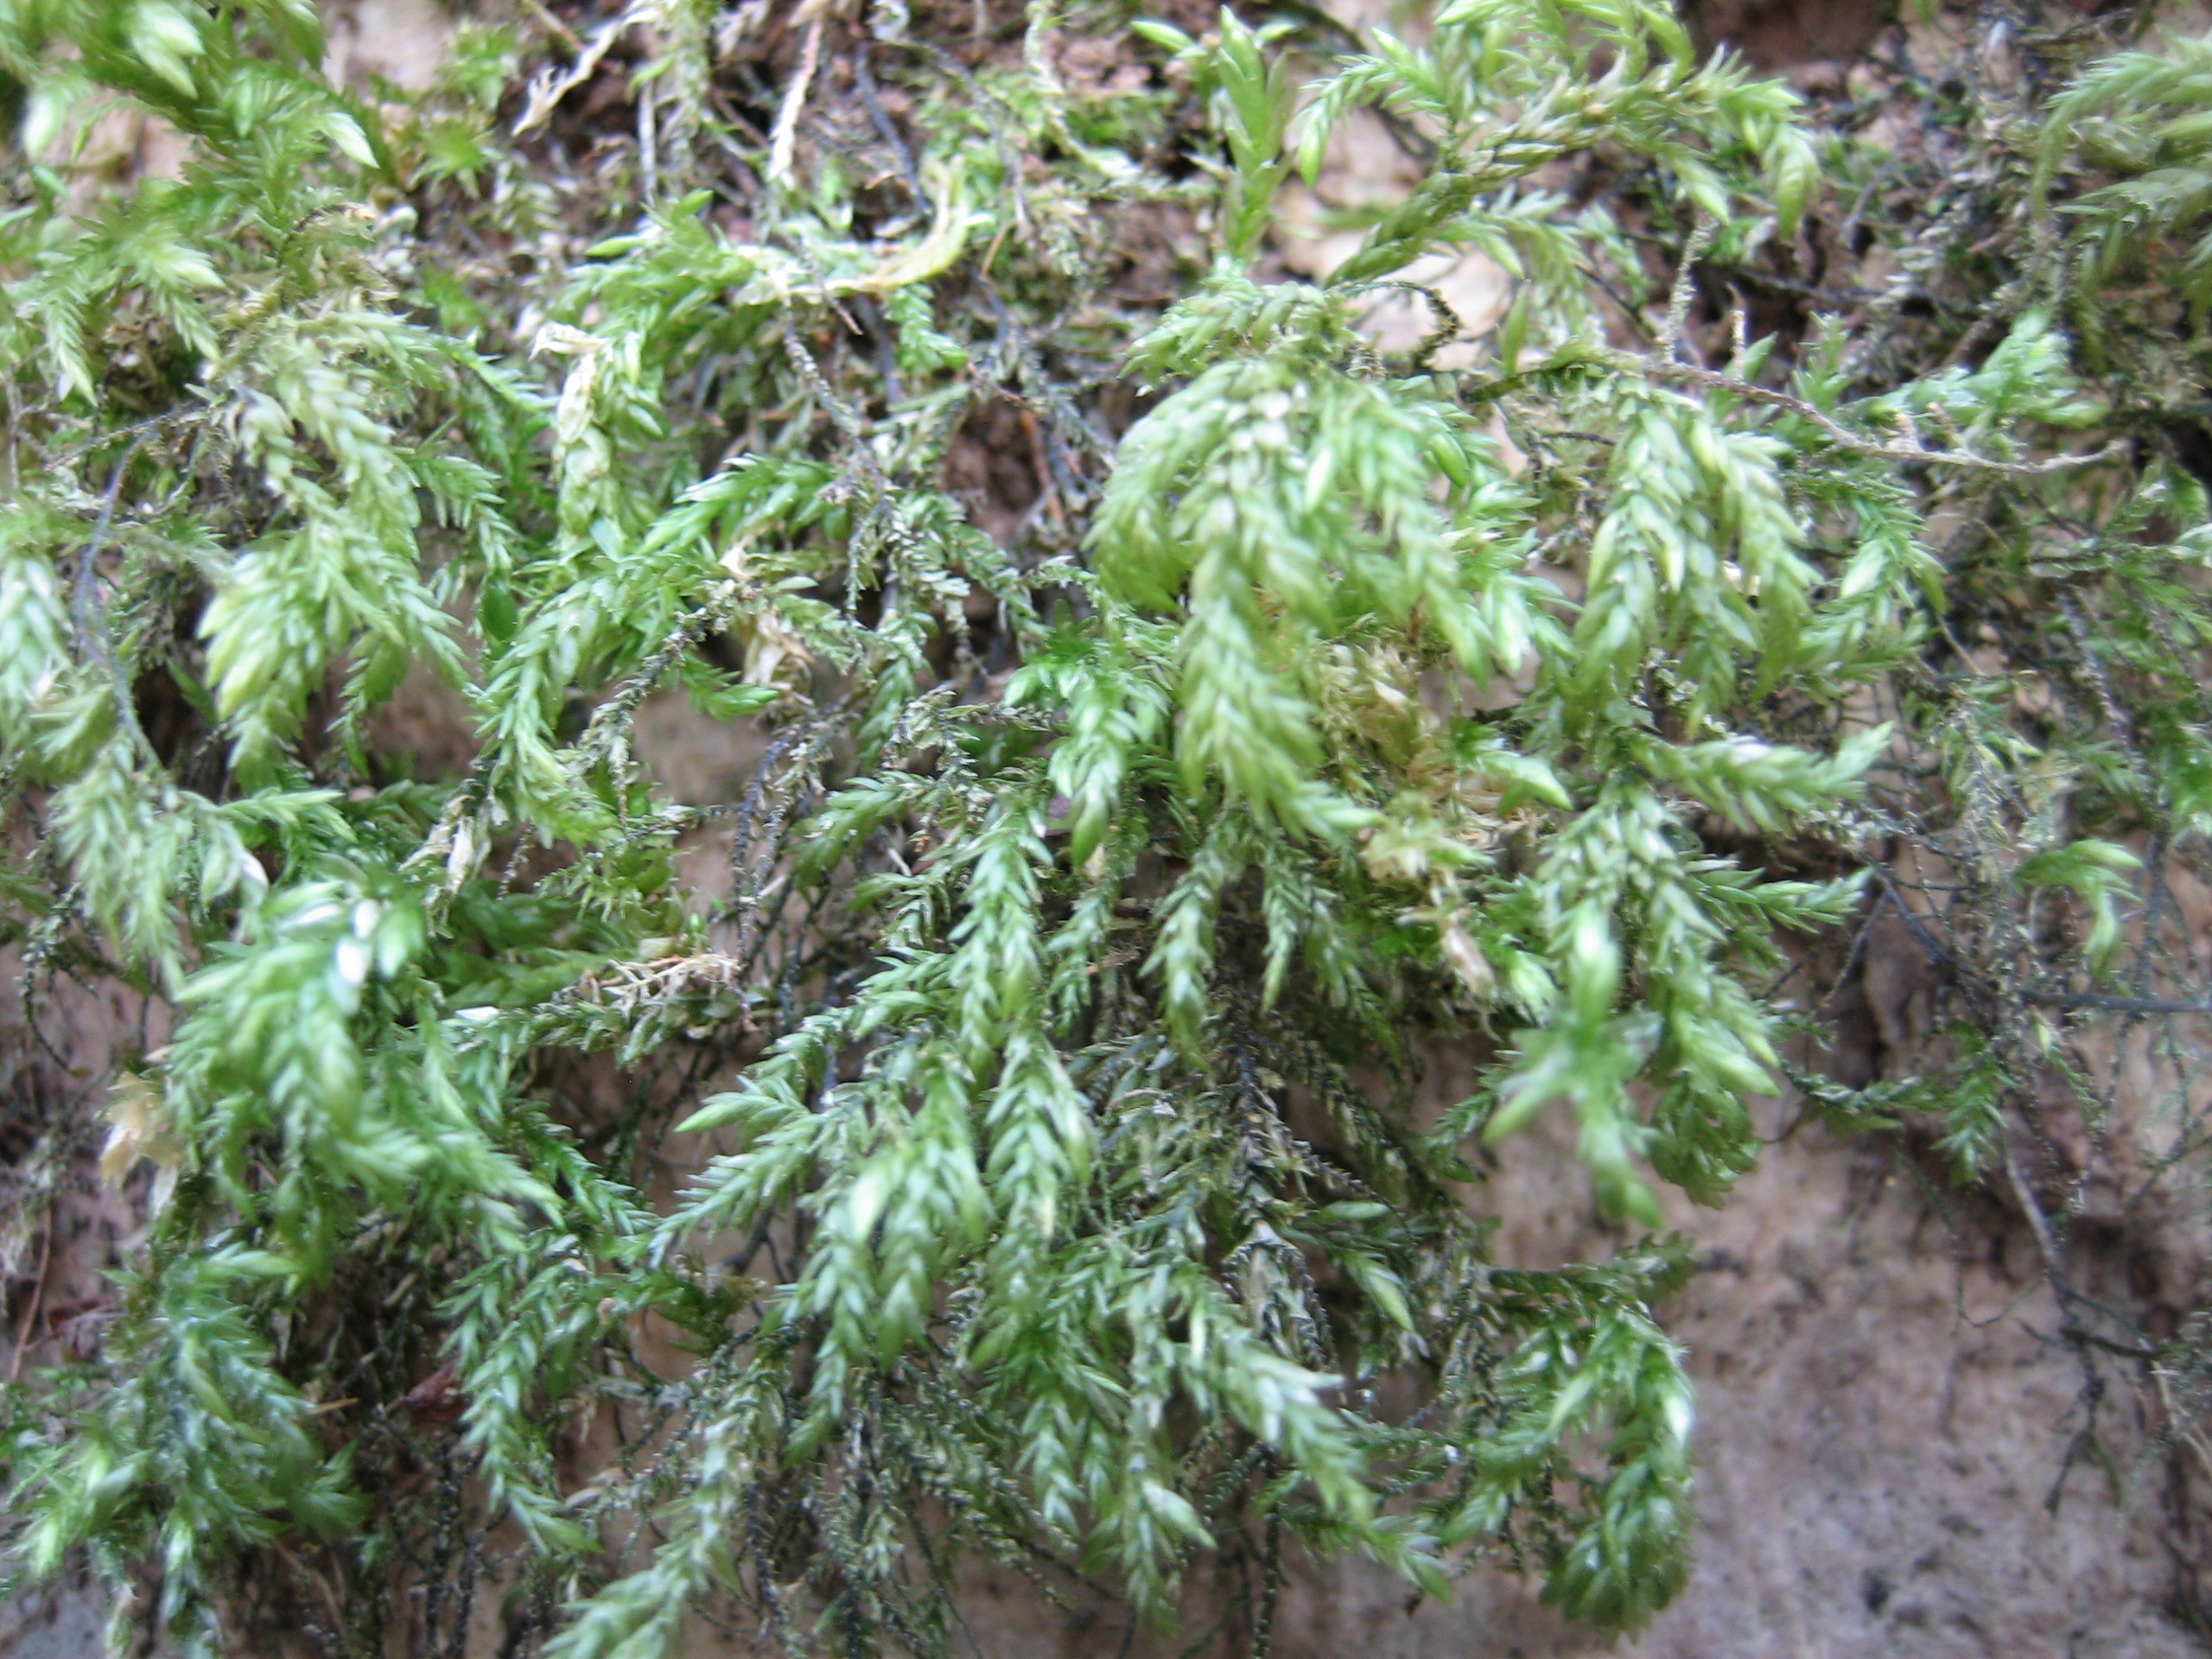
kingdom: Plantae
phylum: Bryophyta
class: Bryopsida
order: Hypnales
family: Lembophyllaceae
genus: Isothecium
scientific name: Isothecium alopecuroides
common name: Stor stammemos
